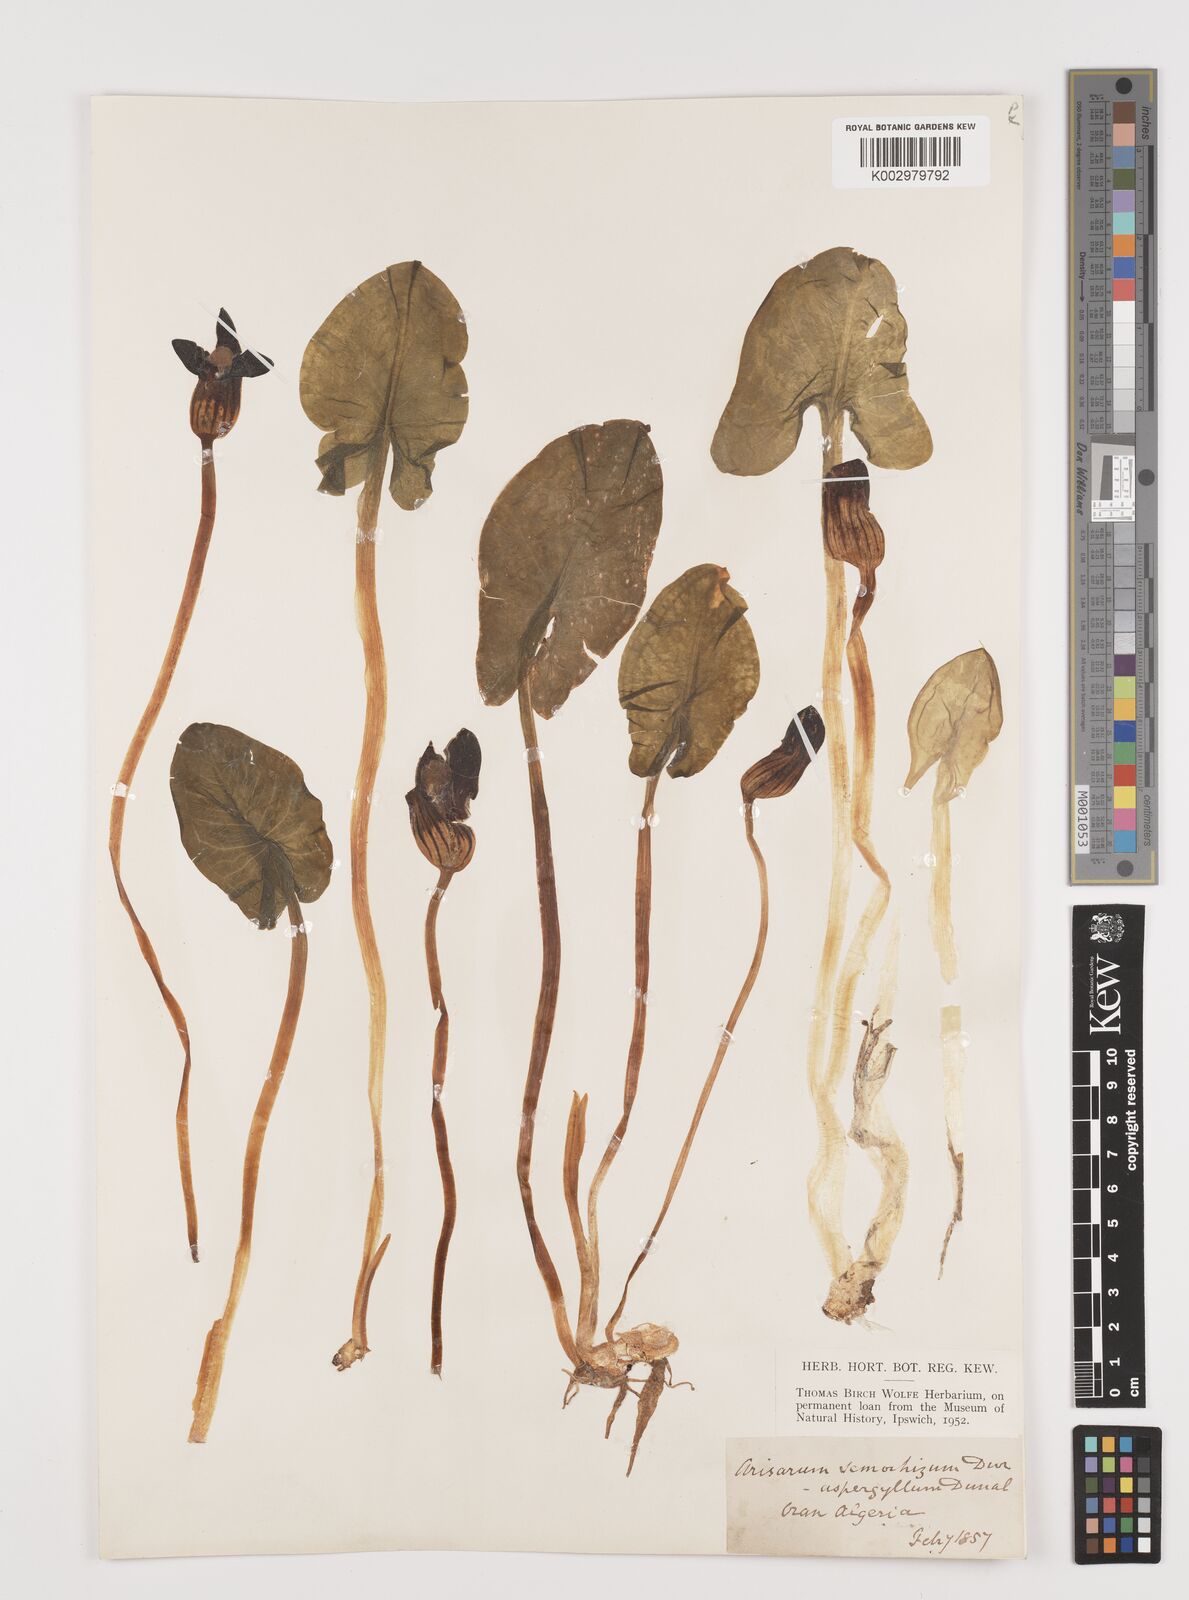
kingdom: Plantae
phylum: Tracheophyta
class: Liliopsida
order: Alismatales
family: Araceae
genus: Arisarum
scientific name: Arisarum simorrhinum
